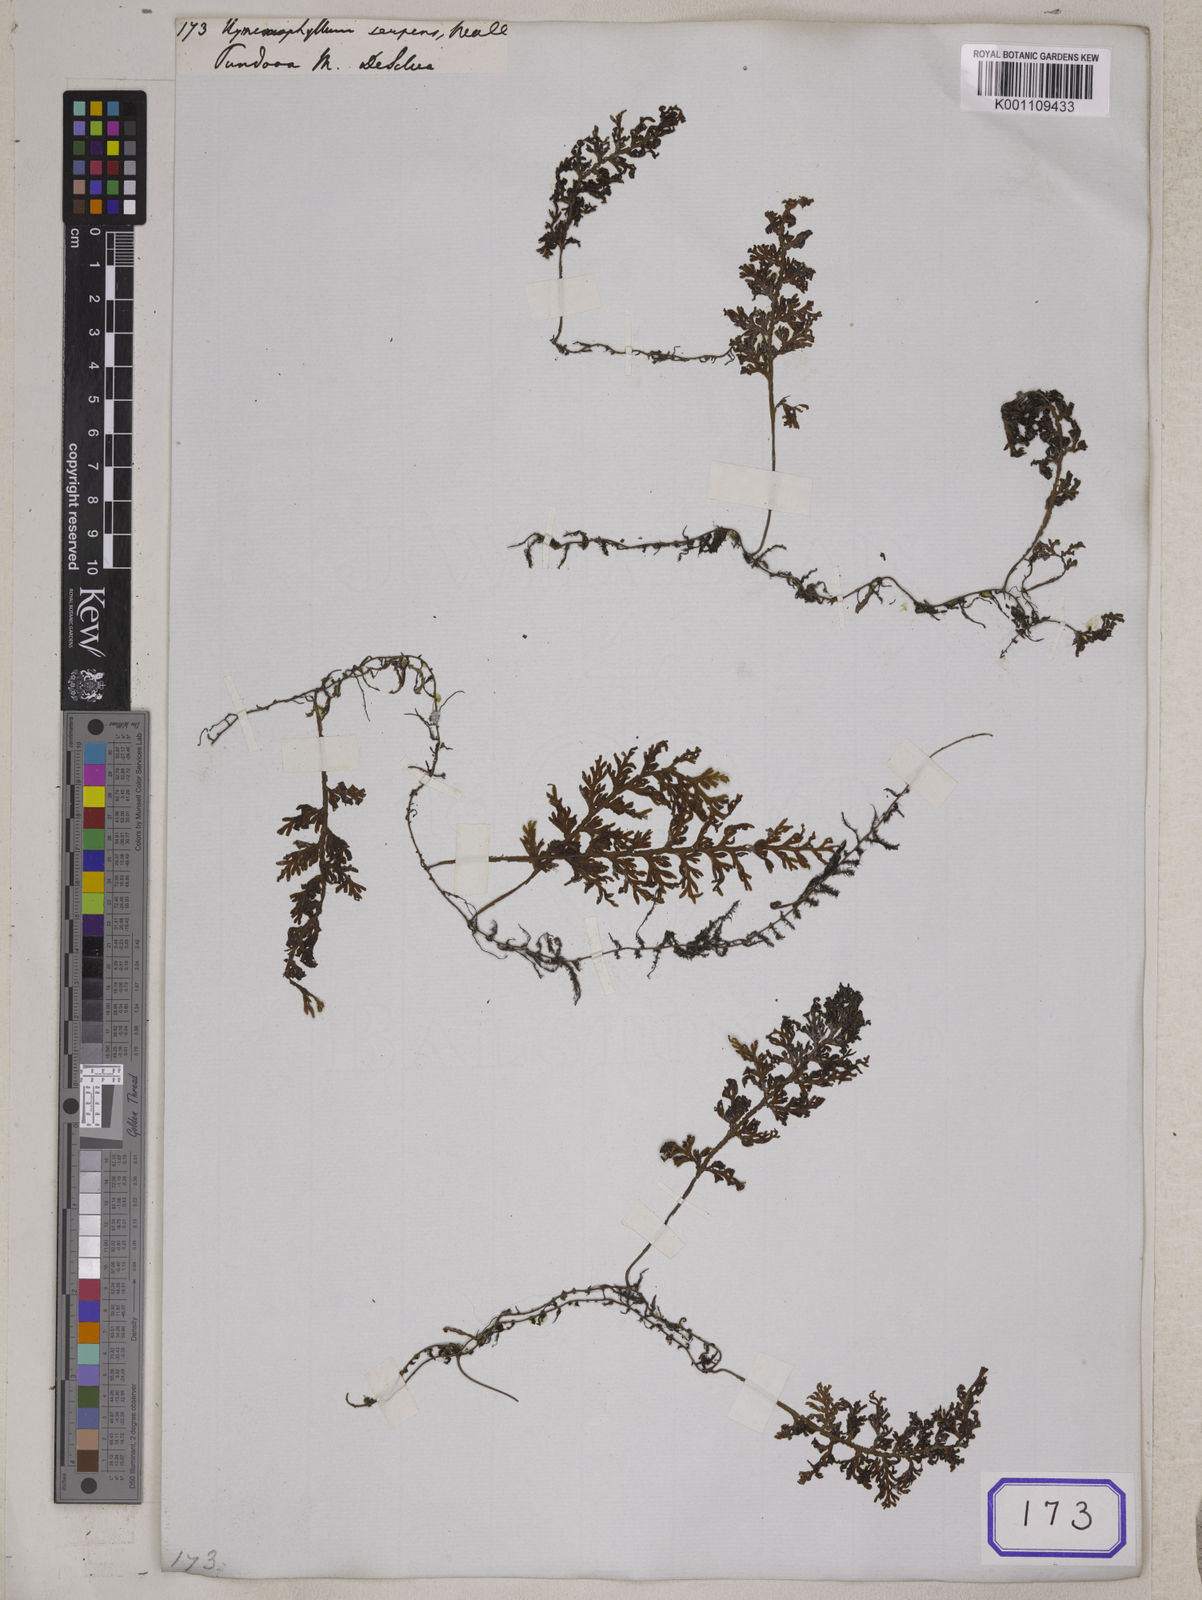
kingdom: Plantae
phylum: Tracheophyta
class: Polypodiopsida
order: Hymenophyllales
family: Hymenophyllaceae
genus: Hymenophyllum
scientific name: Hymenophyllum australe
